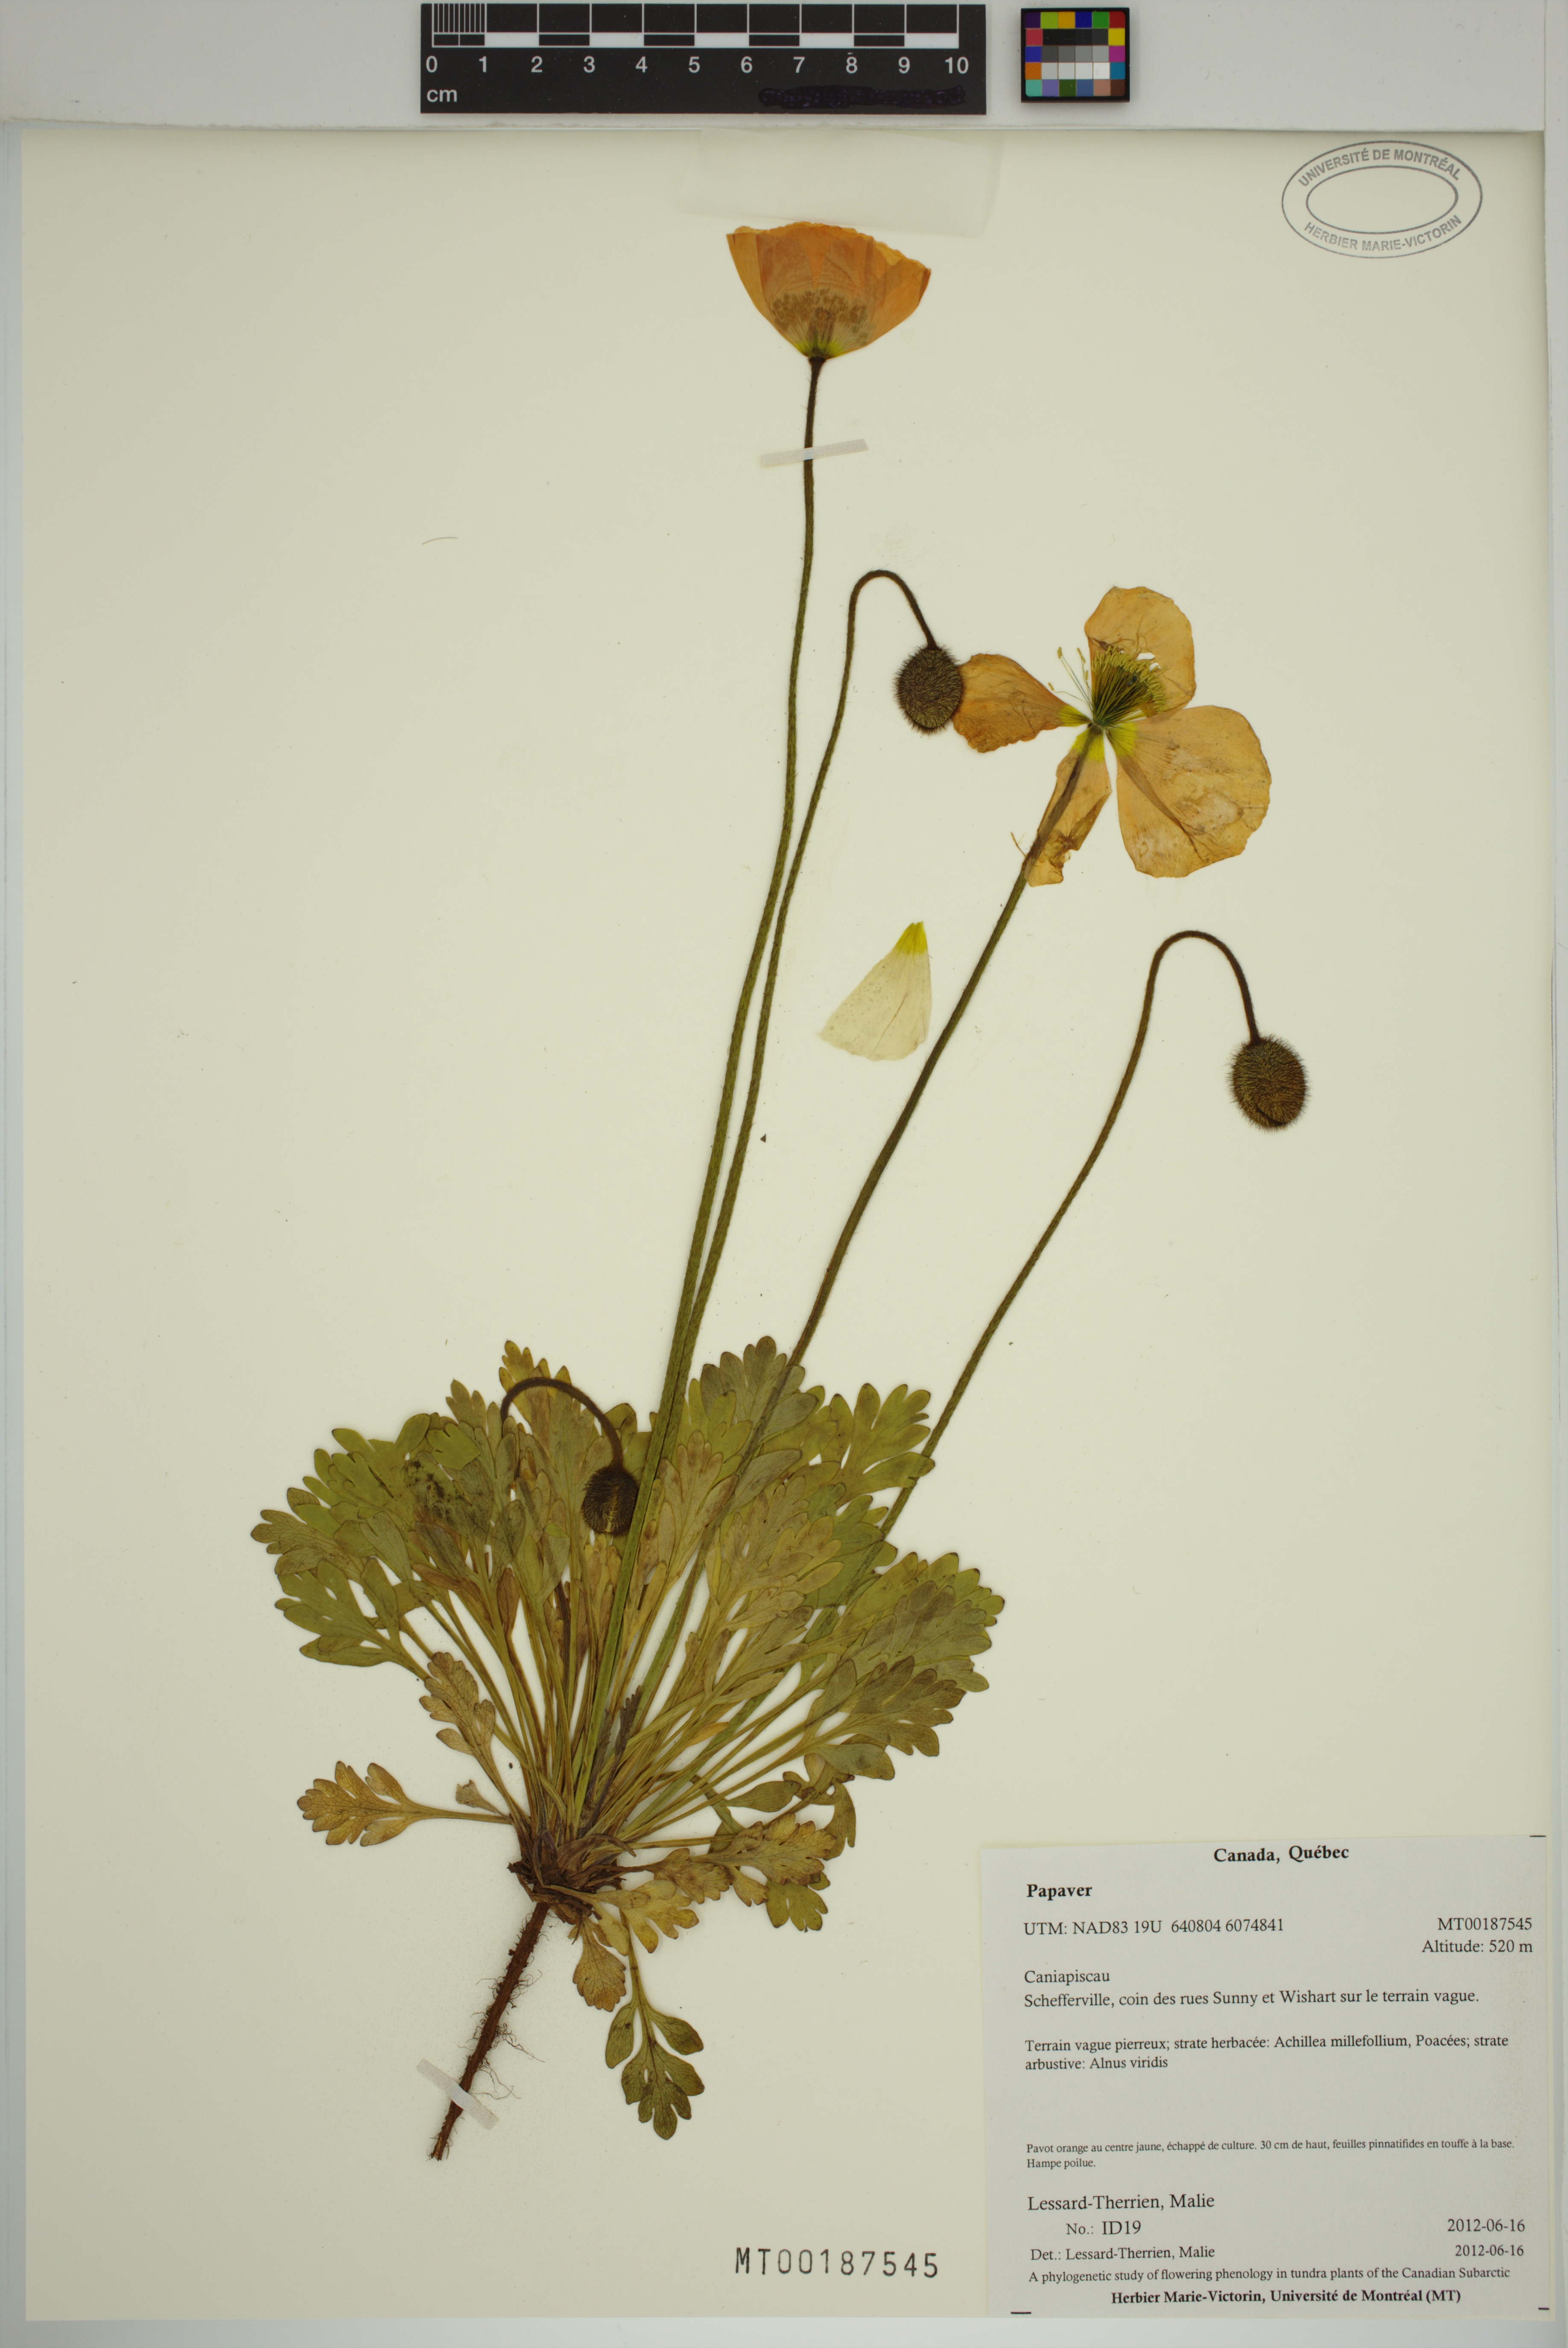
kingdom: Plantae
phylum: Tracheophyta
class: Magnoliopsida
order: Ranunculales
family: Papaveraceae
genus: Papaver
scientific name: Papaver
